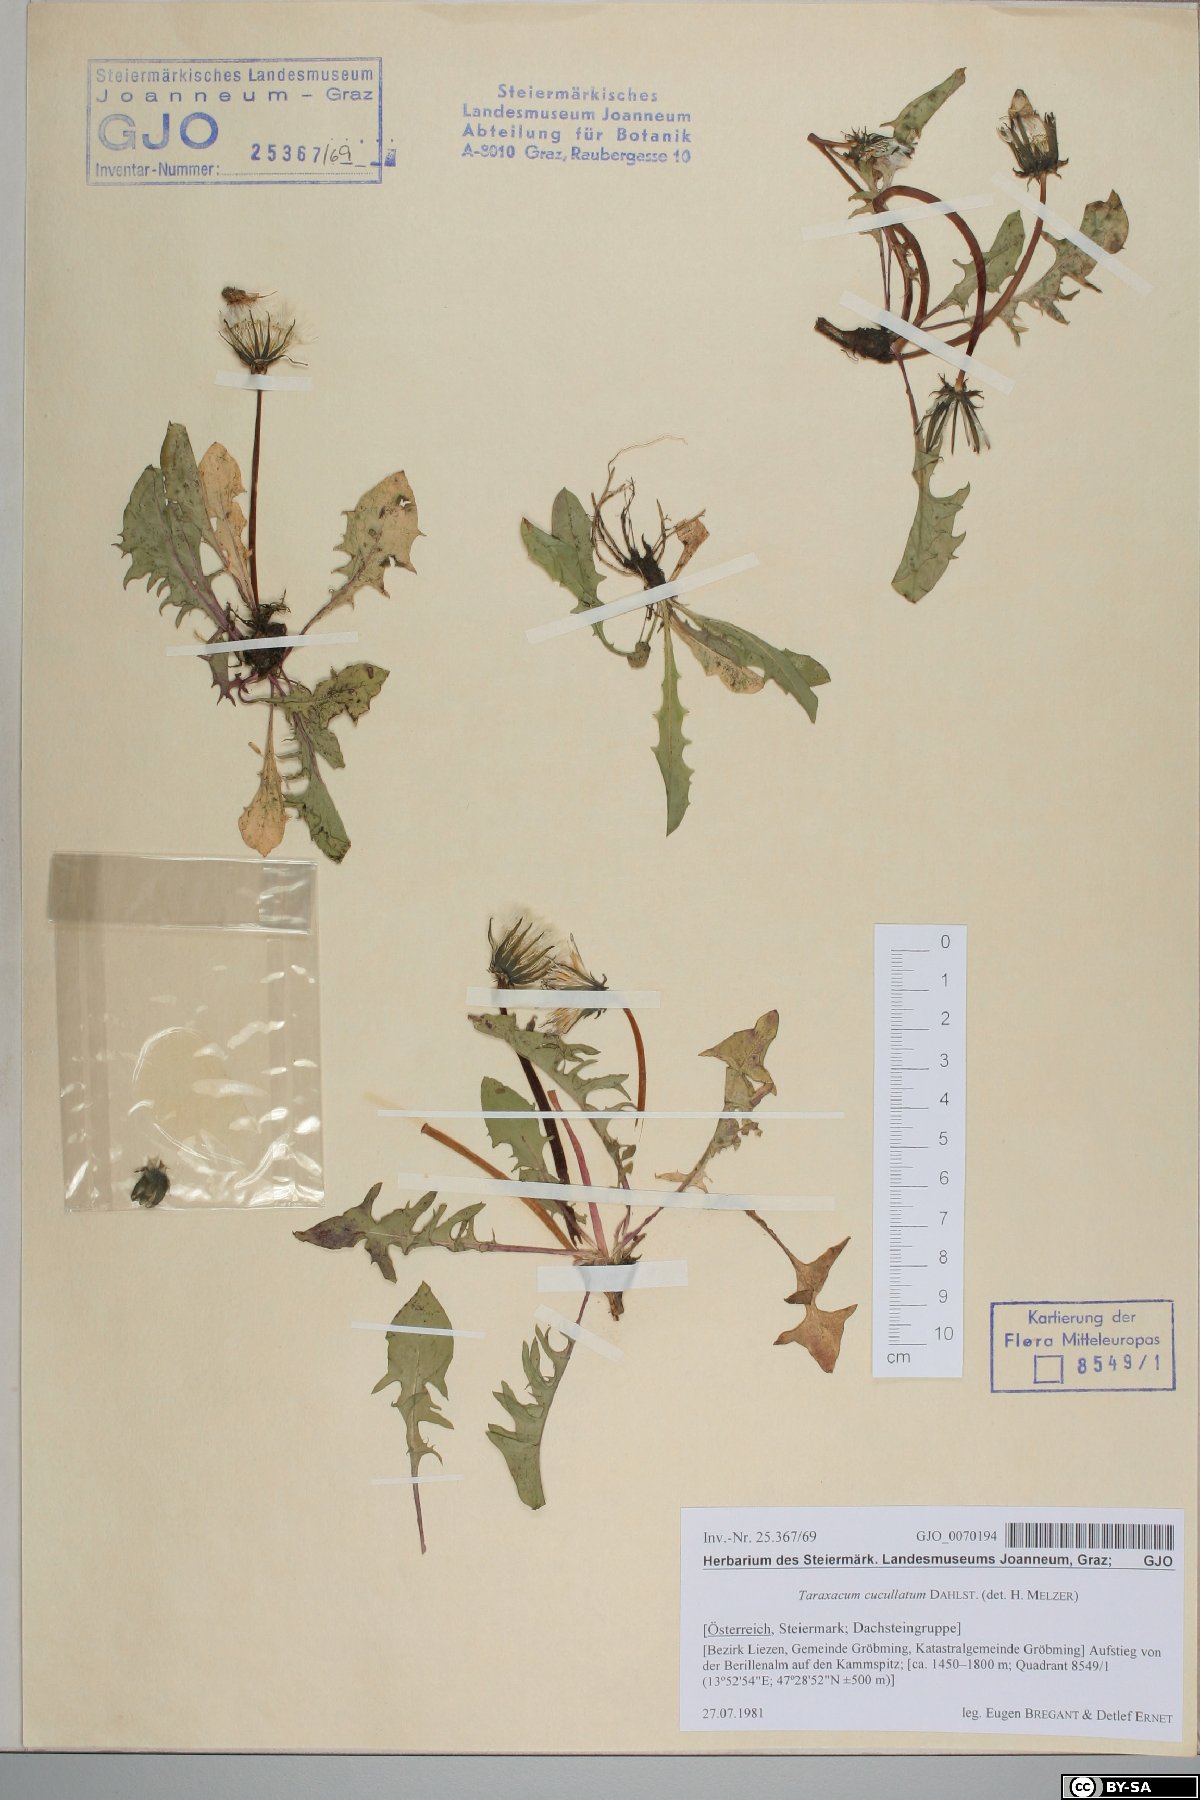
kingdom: Plantae
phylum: Tracheophyta
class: Magnoliopsida
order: Asterales
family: Asteraceae
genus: Taraxacum
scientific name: Taraxacum cucullatum
